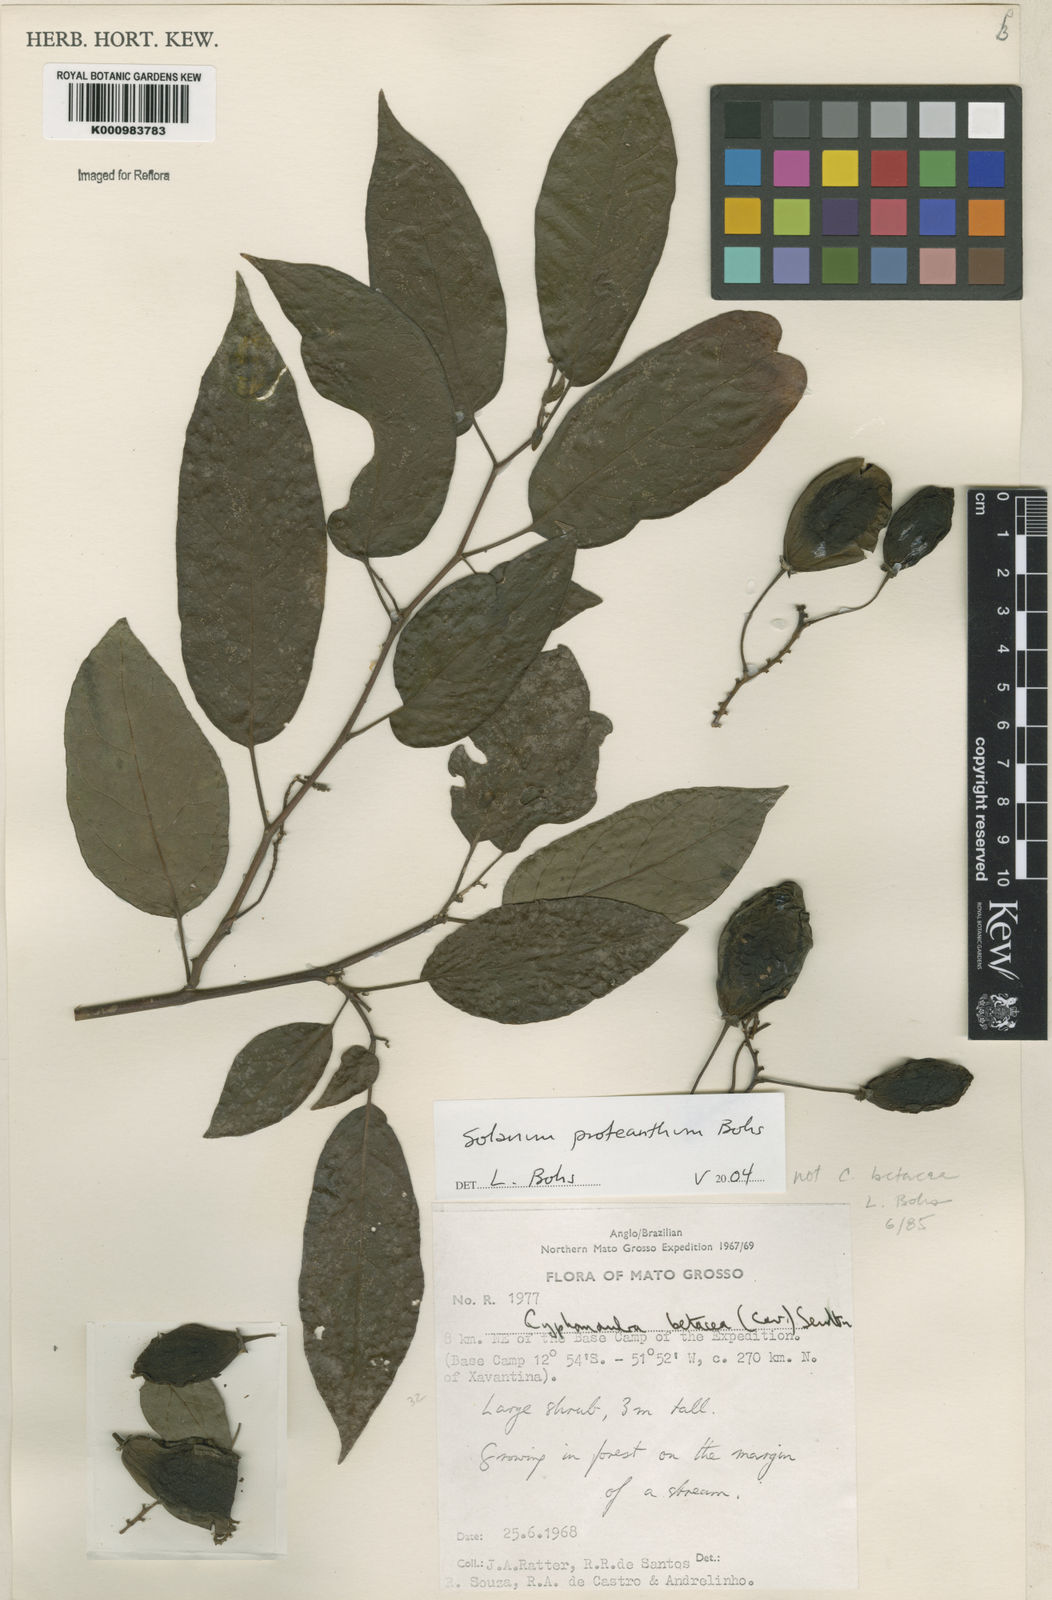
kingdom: Plantae
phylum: Tracheophyta
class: Magnoliopsida
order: Solanales
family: Solanaceae
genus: Solanum
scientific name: Solanum proteanthum
